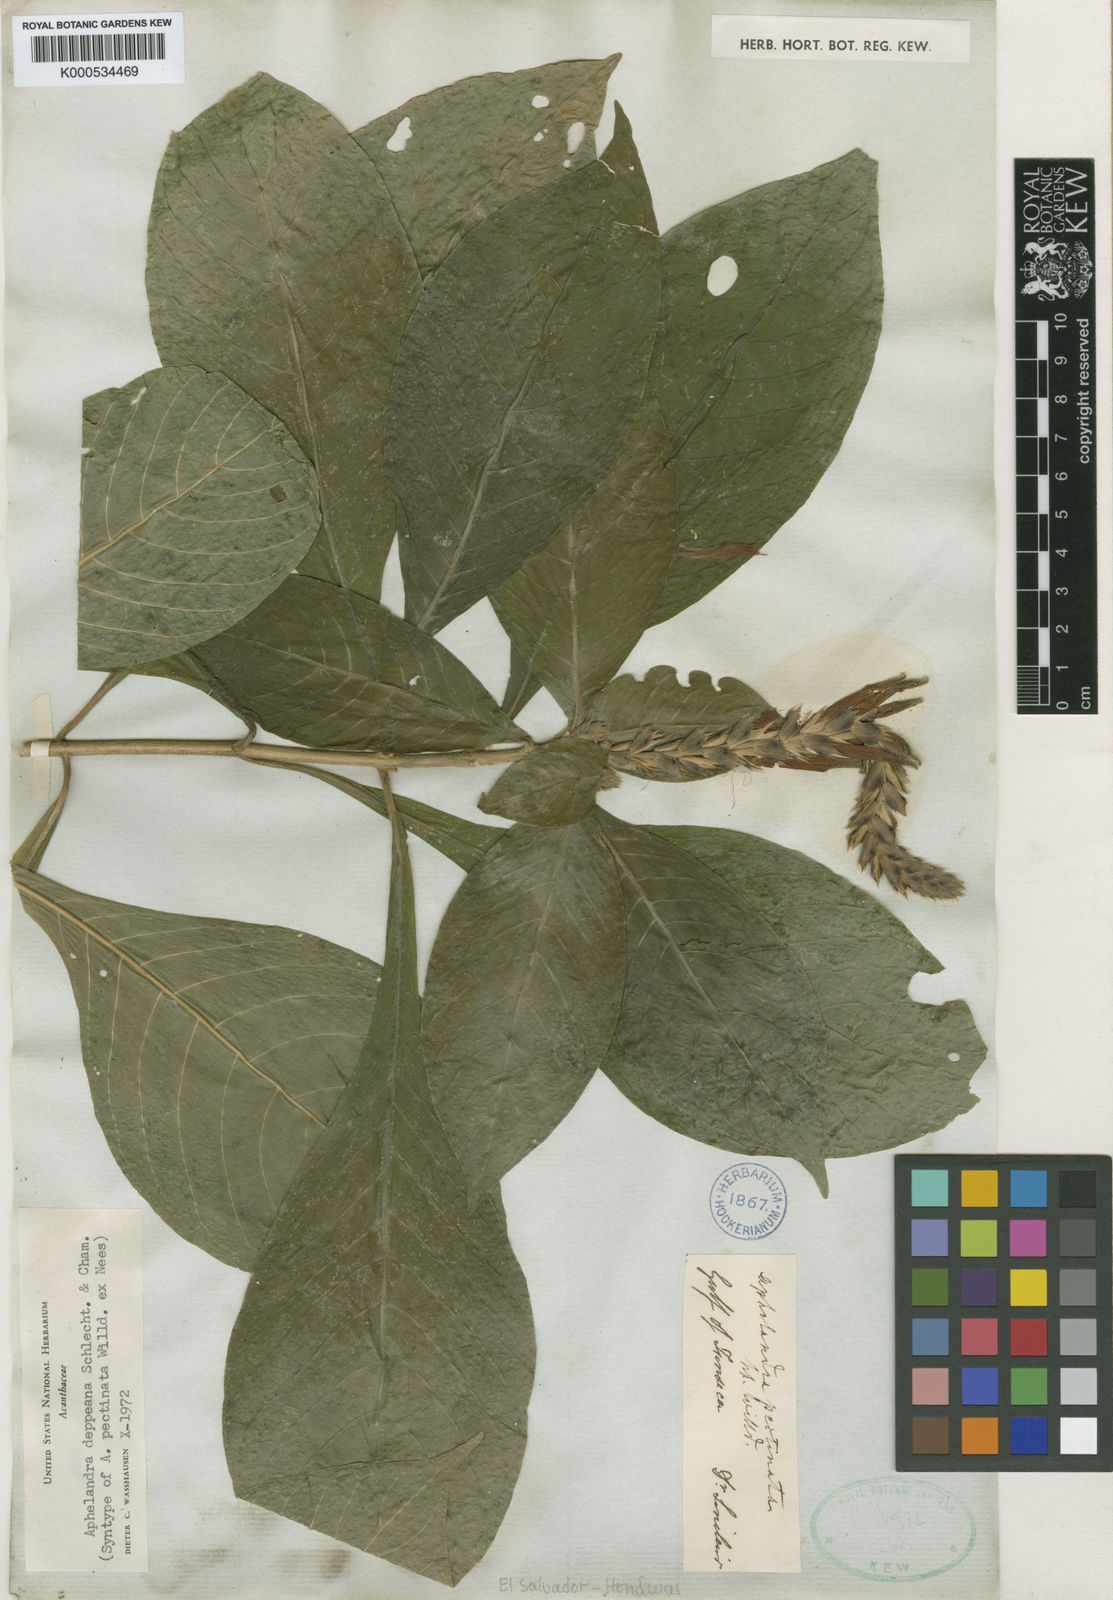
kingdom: Plantae
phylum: Tracheophyta
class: Magnoliopsida
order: Lamiales
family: Acanthaceae
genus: Aphelandra
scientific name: Aphelandra scabra
